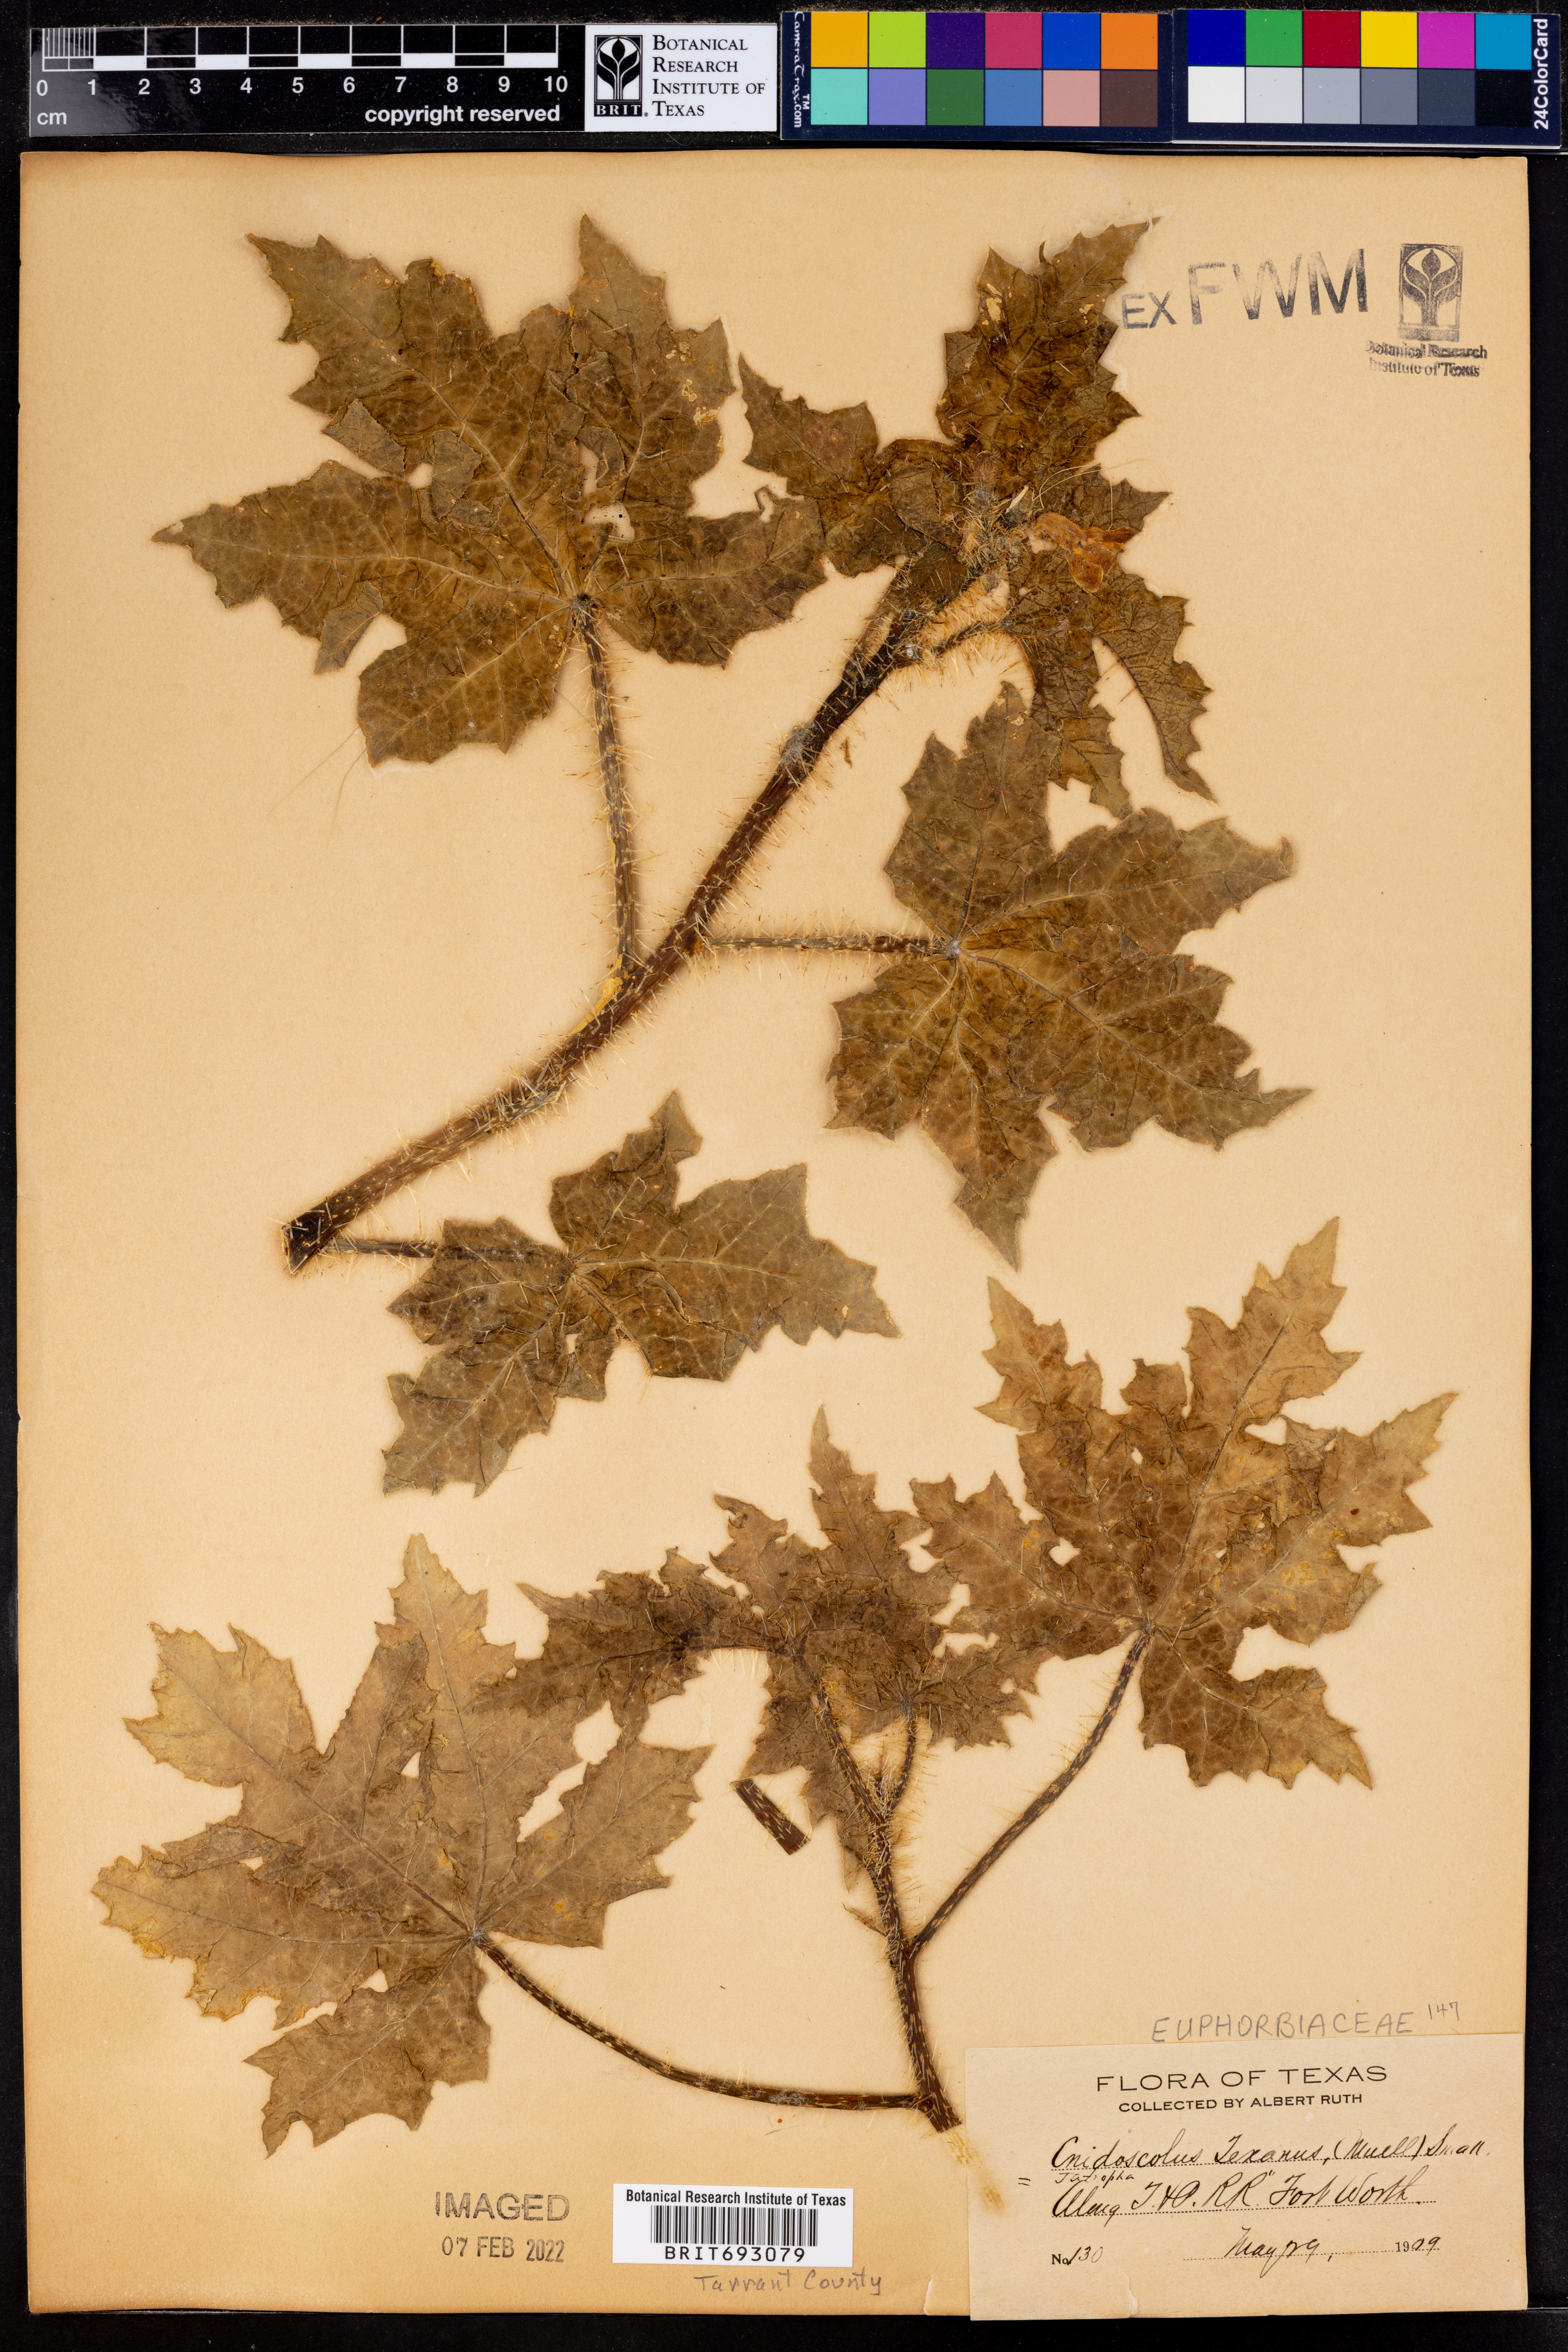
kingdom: Plantae
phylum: Tracheophyta
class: Magnoliopsida
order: Malpighiales
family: Euphorbiaceae
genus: Cnidoscolus
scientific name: Cnidoscolus texanus
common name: Texas bull-nettle
